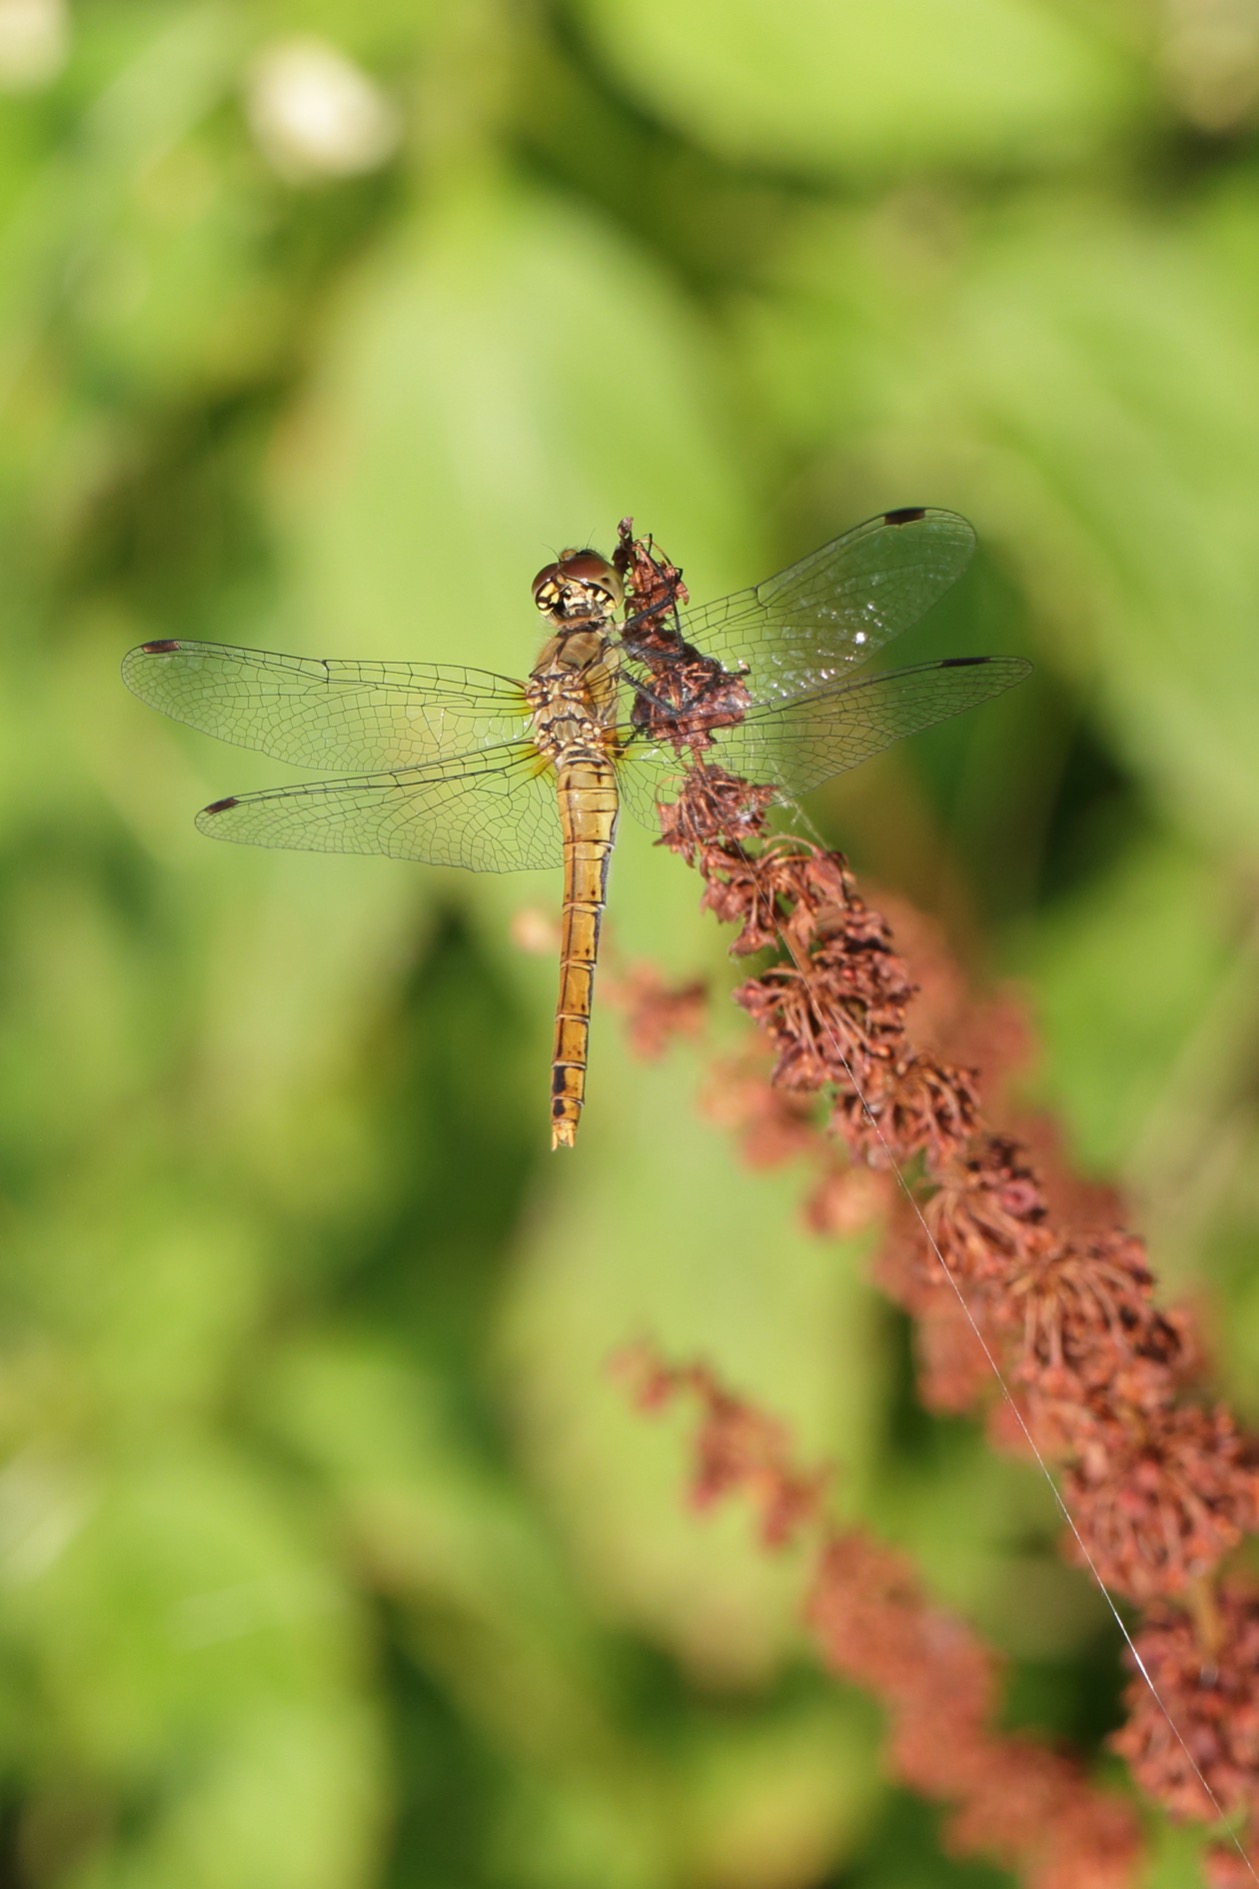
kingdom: Animalia
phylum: Arthropoda
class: Insecta
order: Odonata
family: Libellulidae
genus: Sympetrum
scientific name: Sympetrum sanguineum
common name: Blodrød hedelibel
